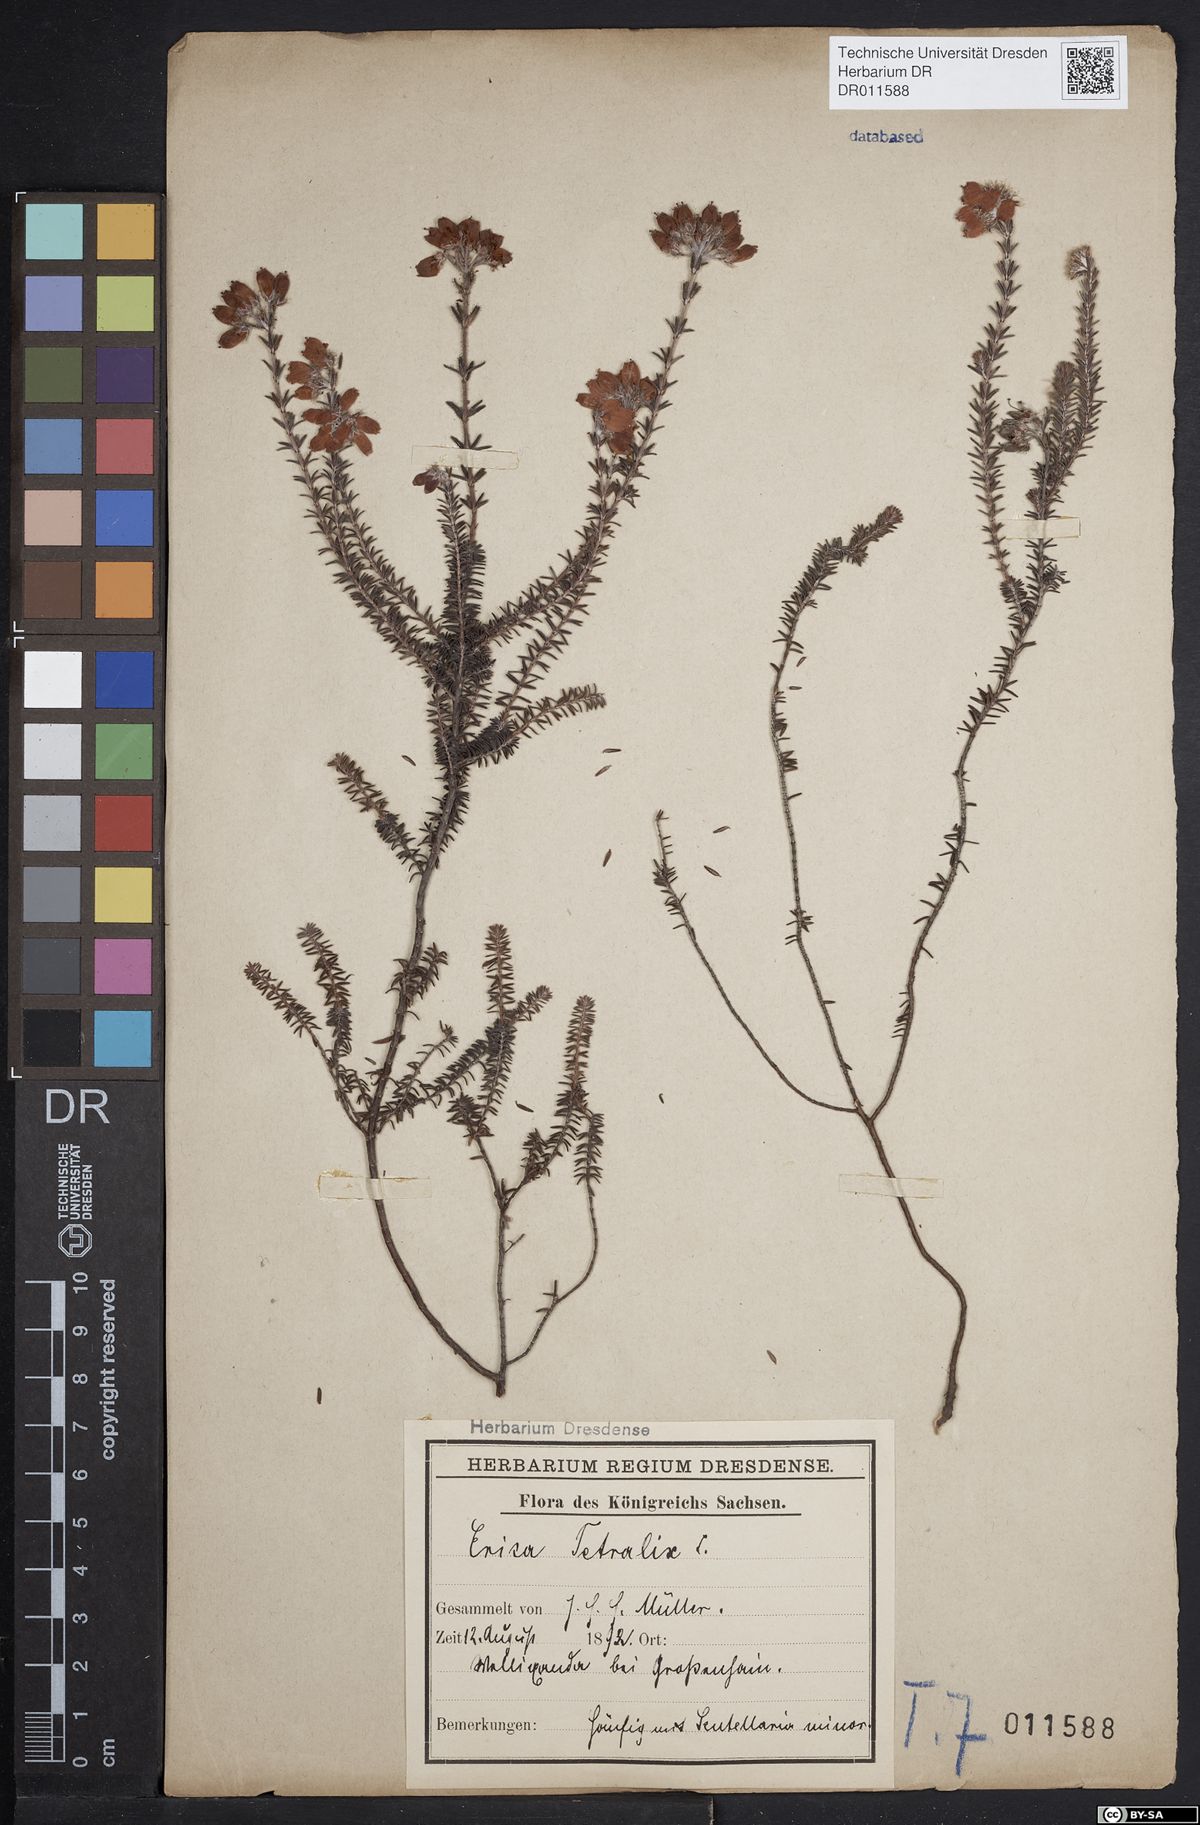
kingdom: Plantae
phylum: Tracheophyta
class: Magnoliopsida
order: Ericales
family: Ericaceae
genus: Erica
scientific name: Erica tetralix
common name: Cross-leaved heath
